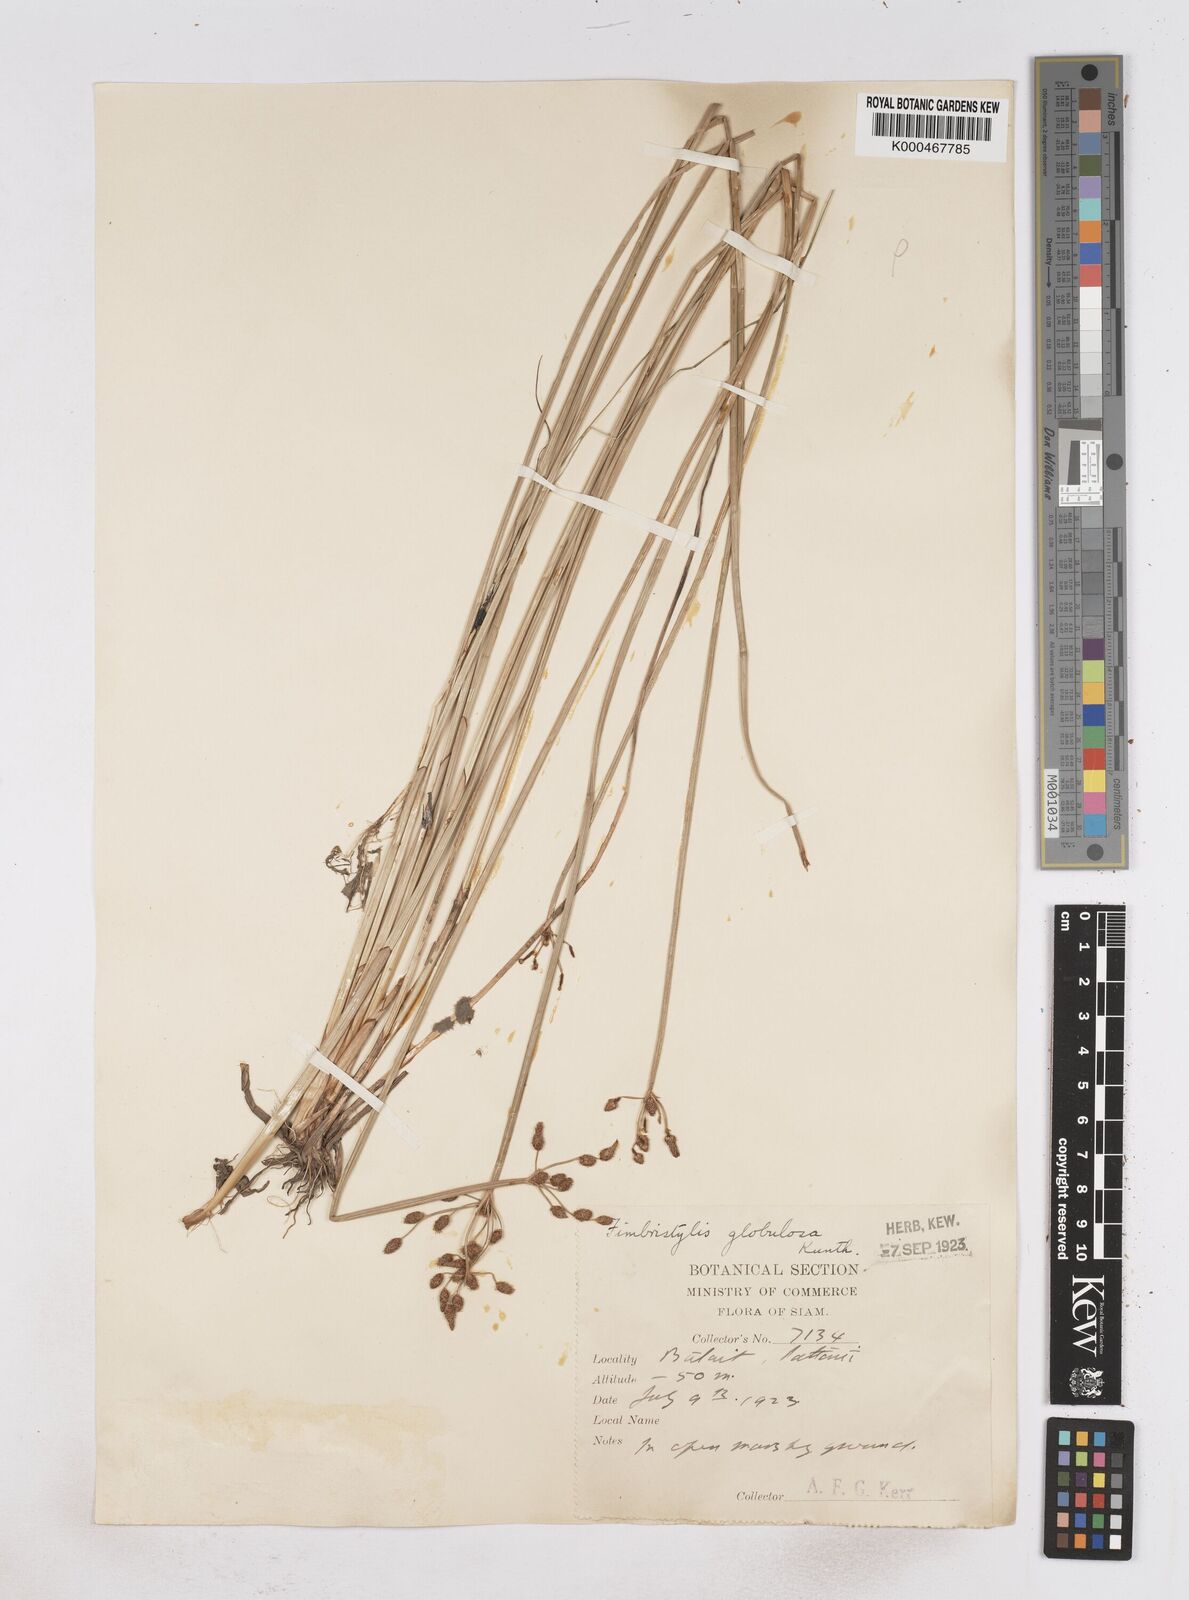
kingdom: Plantae
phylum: Tracheophyta
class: Liliopsida
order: Poales
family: Cyperaceae
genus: Fimbristylis
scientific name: Fimbristylis umbellaris
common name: Globular fimbristylis
